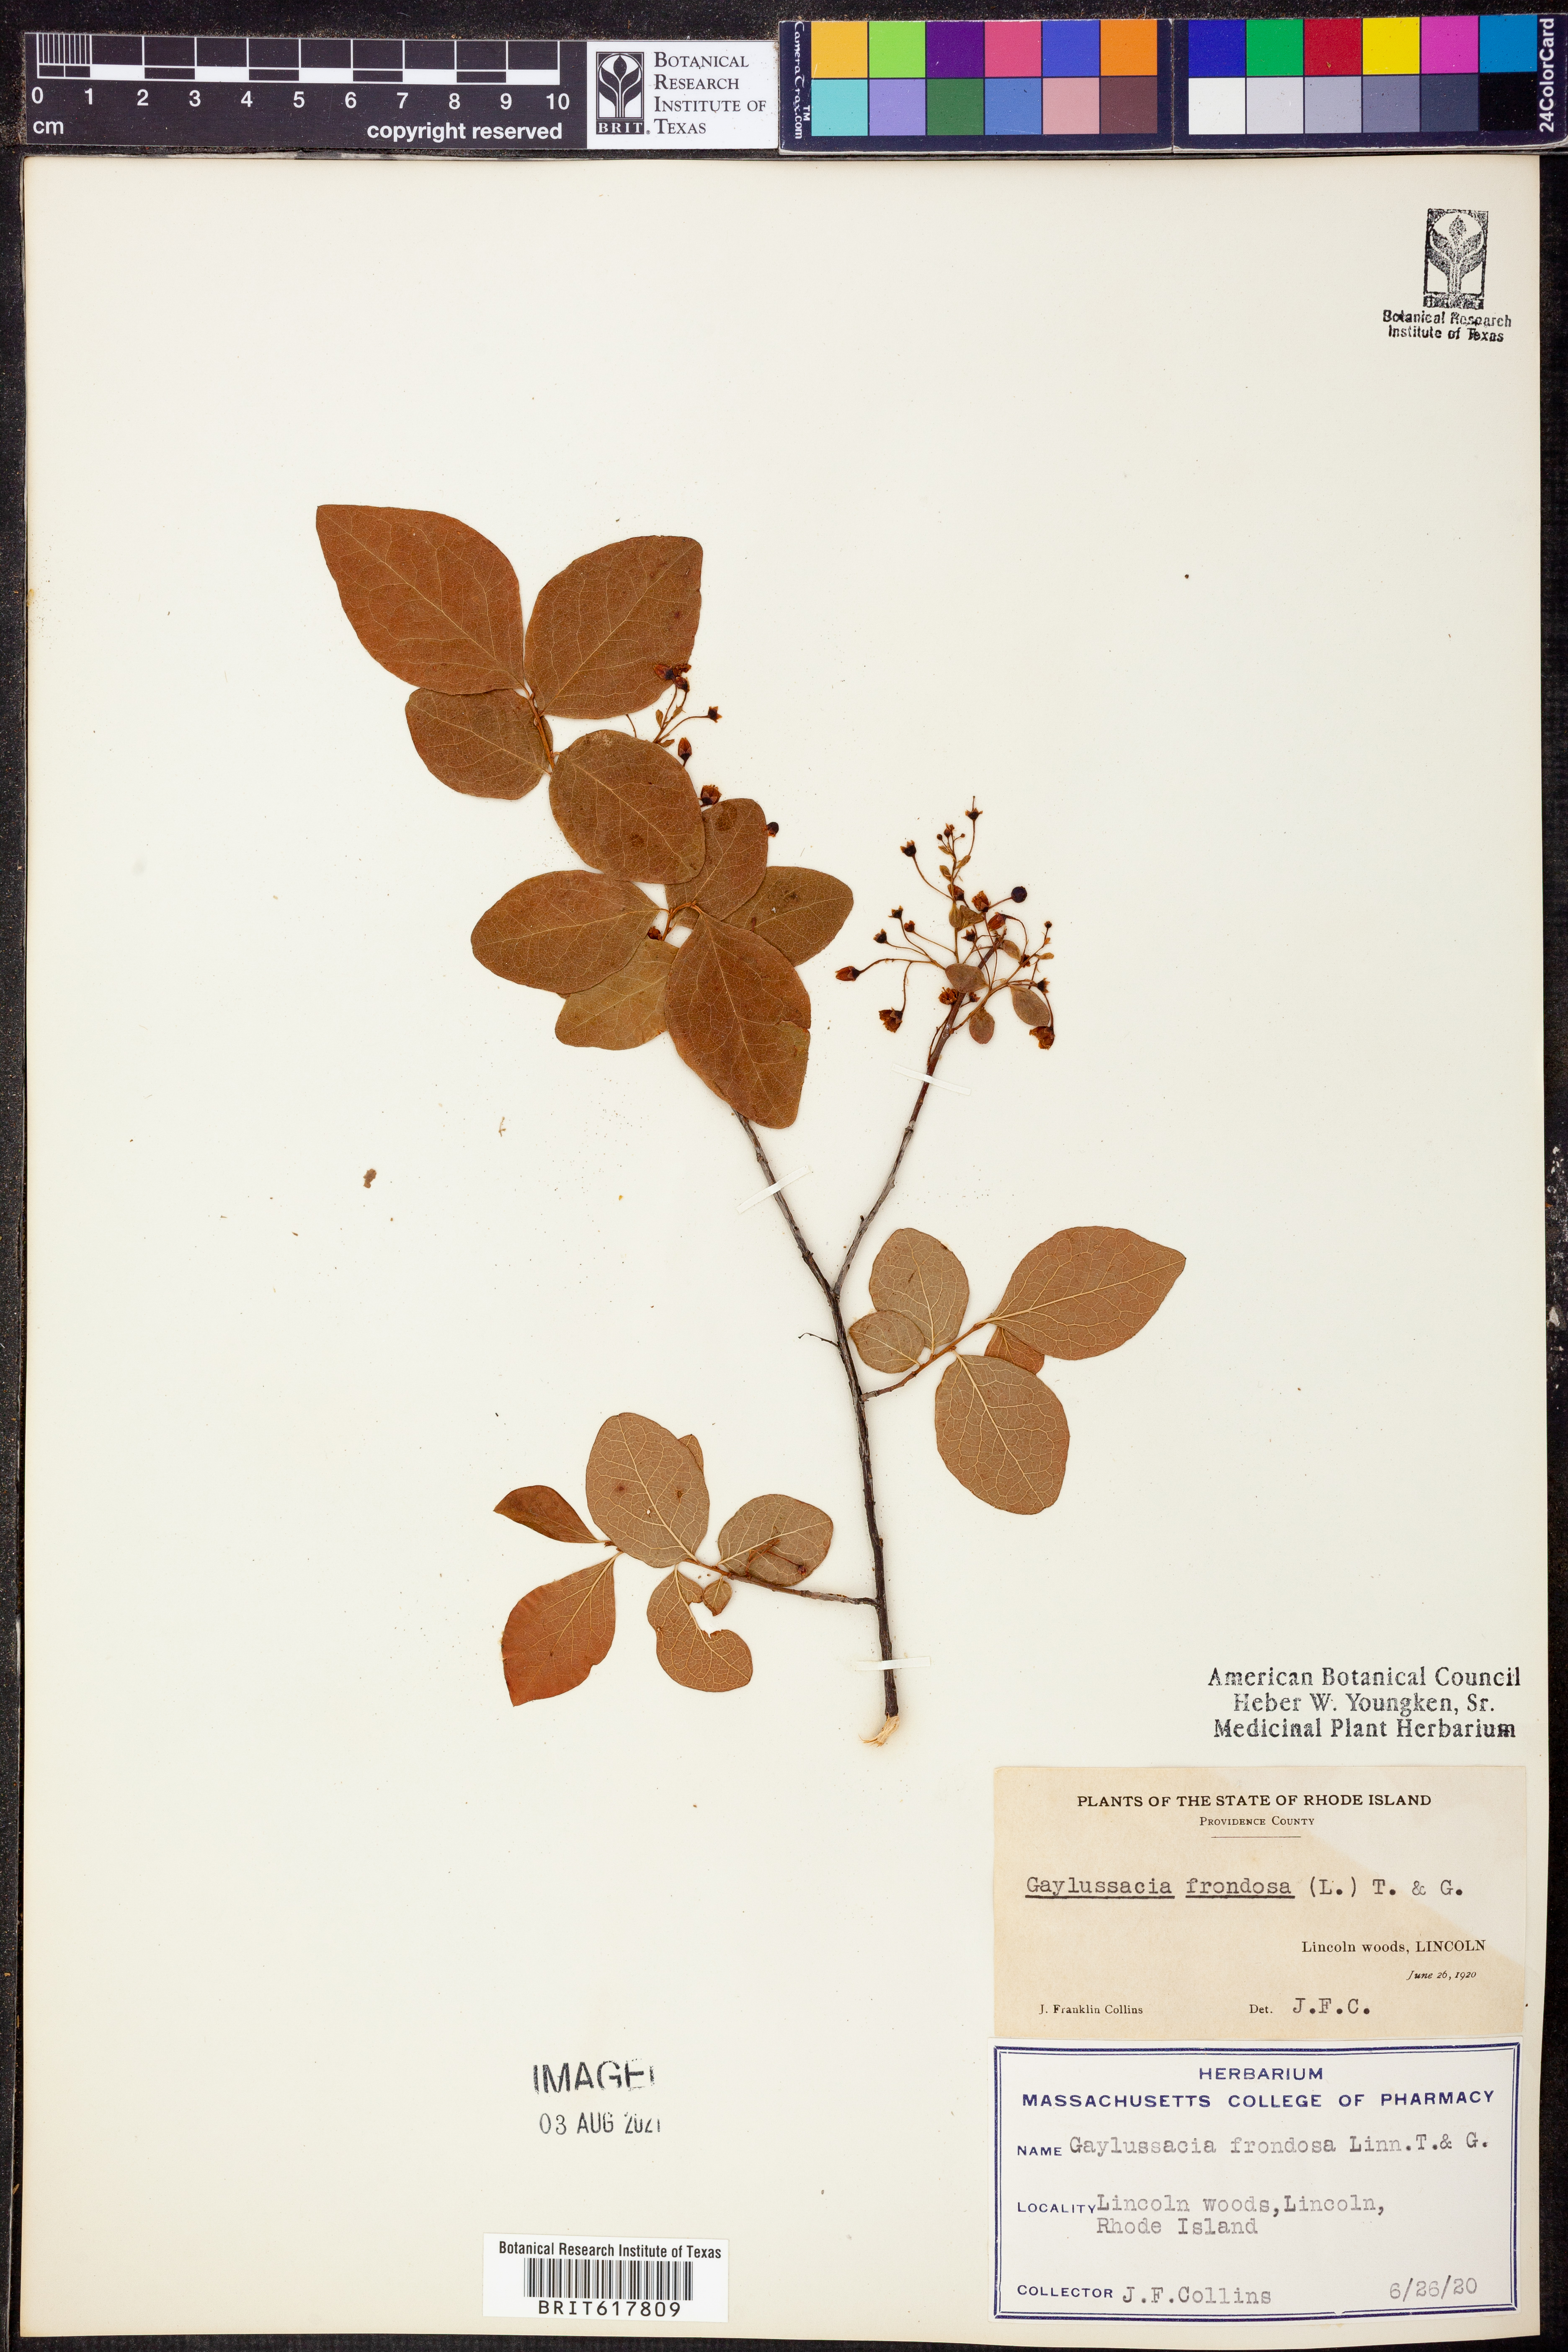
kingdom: Plantae
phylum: Tracheophyta
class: Magnoliopsida
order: Ericales
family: Ericaceae
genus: Gaylussacia
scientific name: Gaylussacia frondosa
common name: Dangleberry
